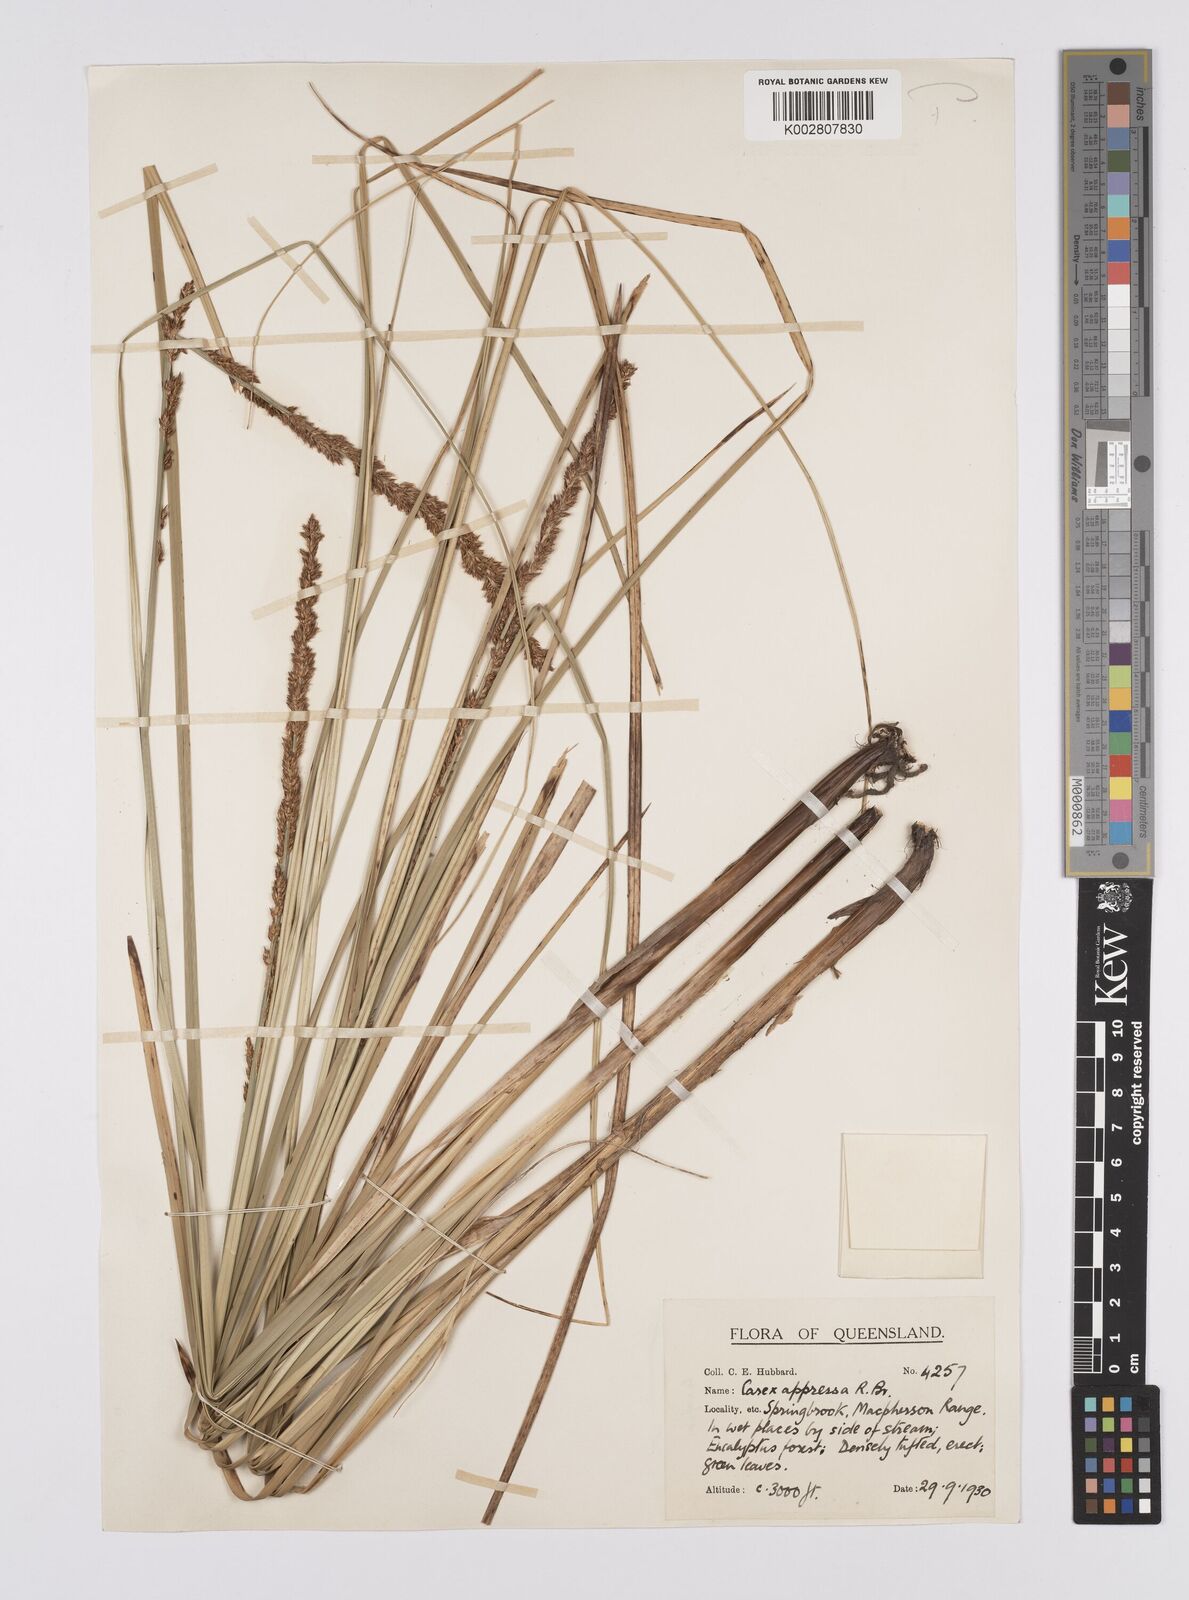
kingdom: Plantae
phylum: Tracheophyta
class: Liliopsida
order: Poales
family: Cyperaceae
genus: Carex
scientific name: Carex appressa
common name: Tussock sedge
